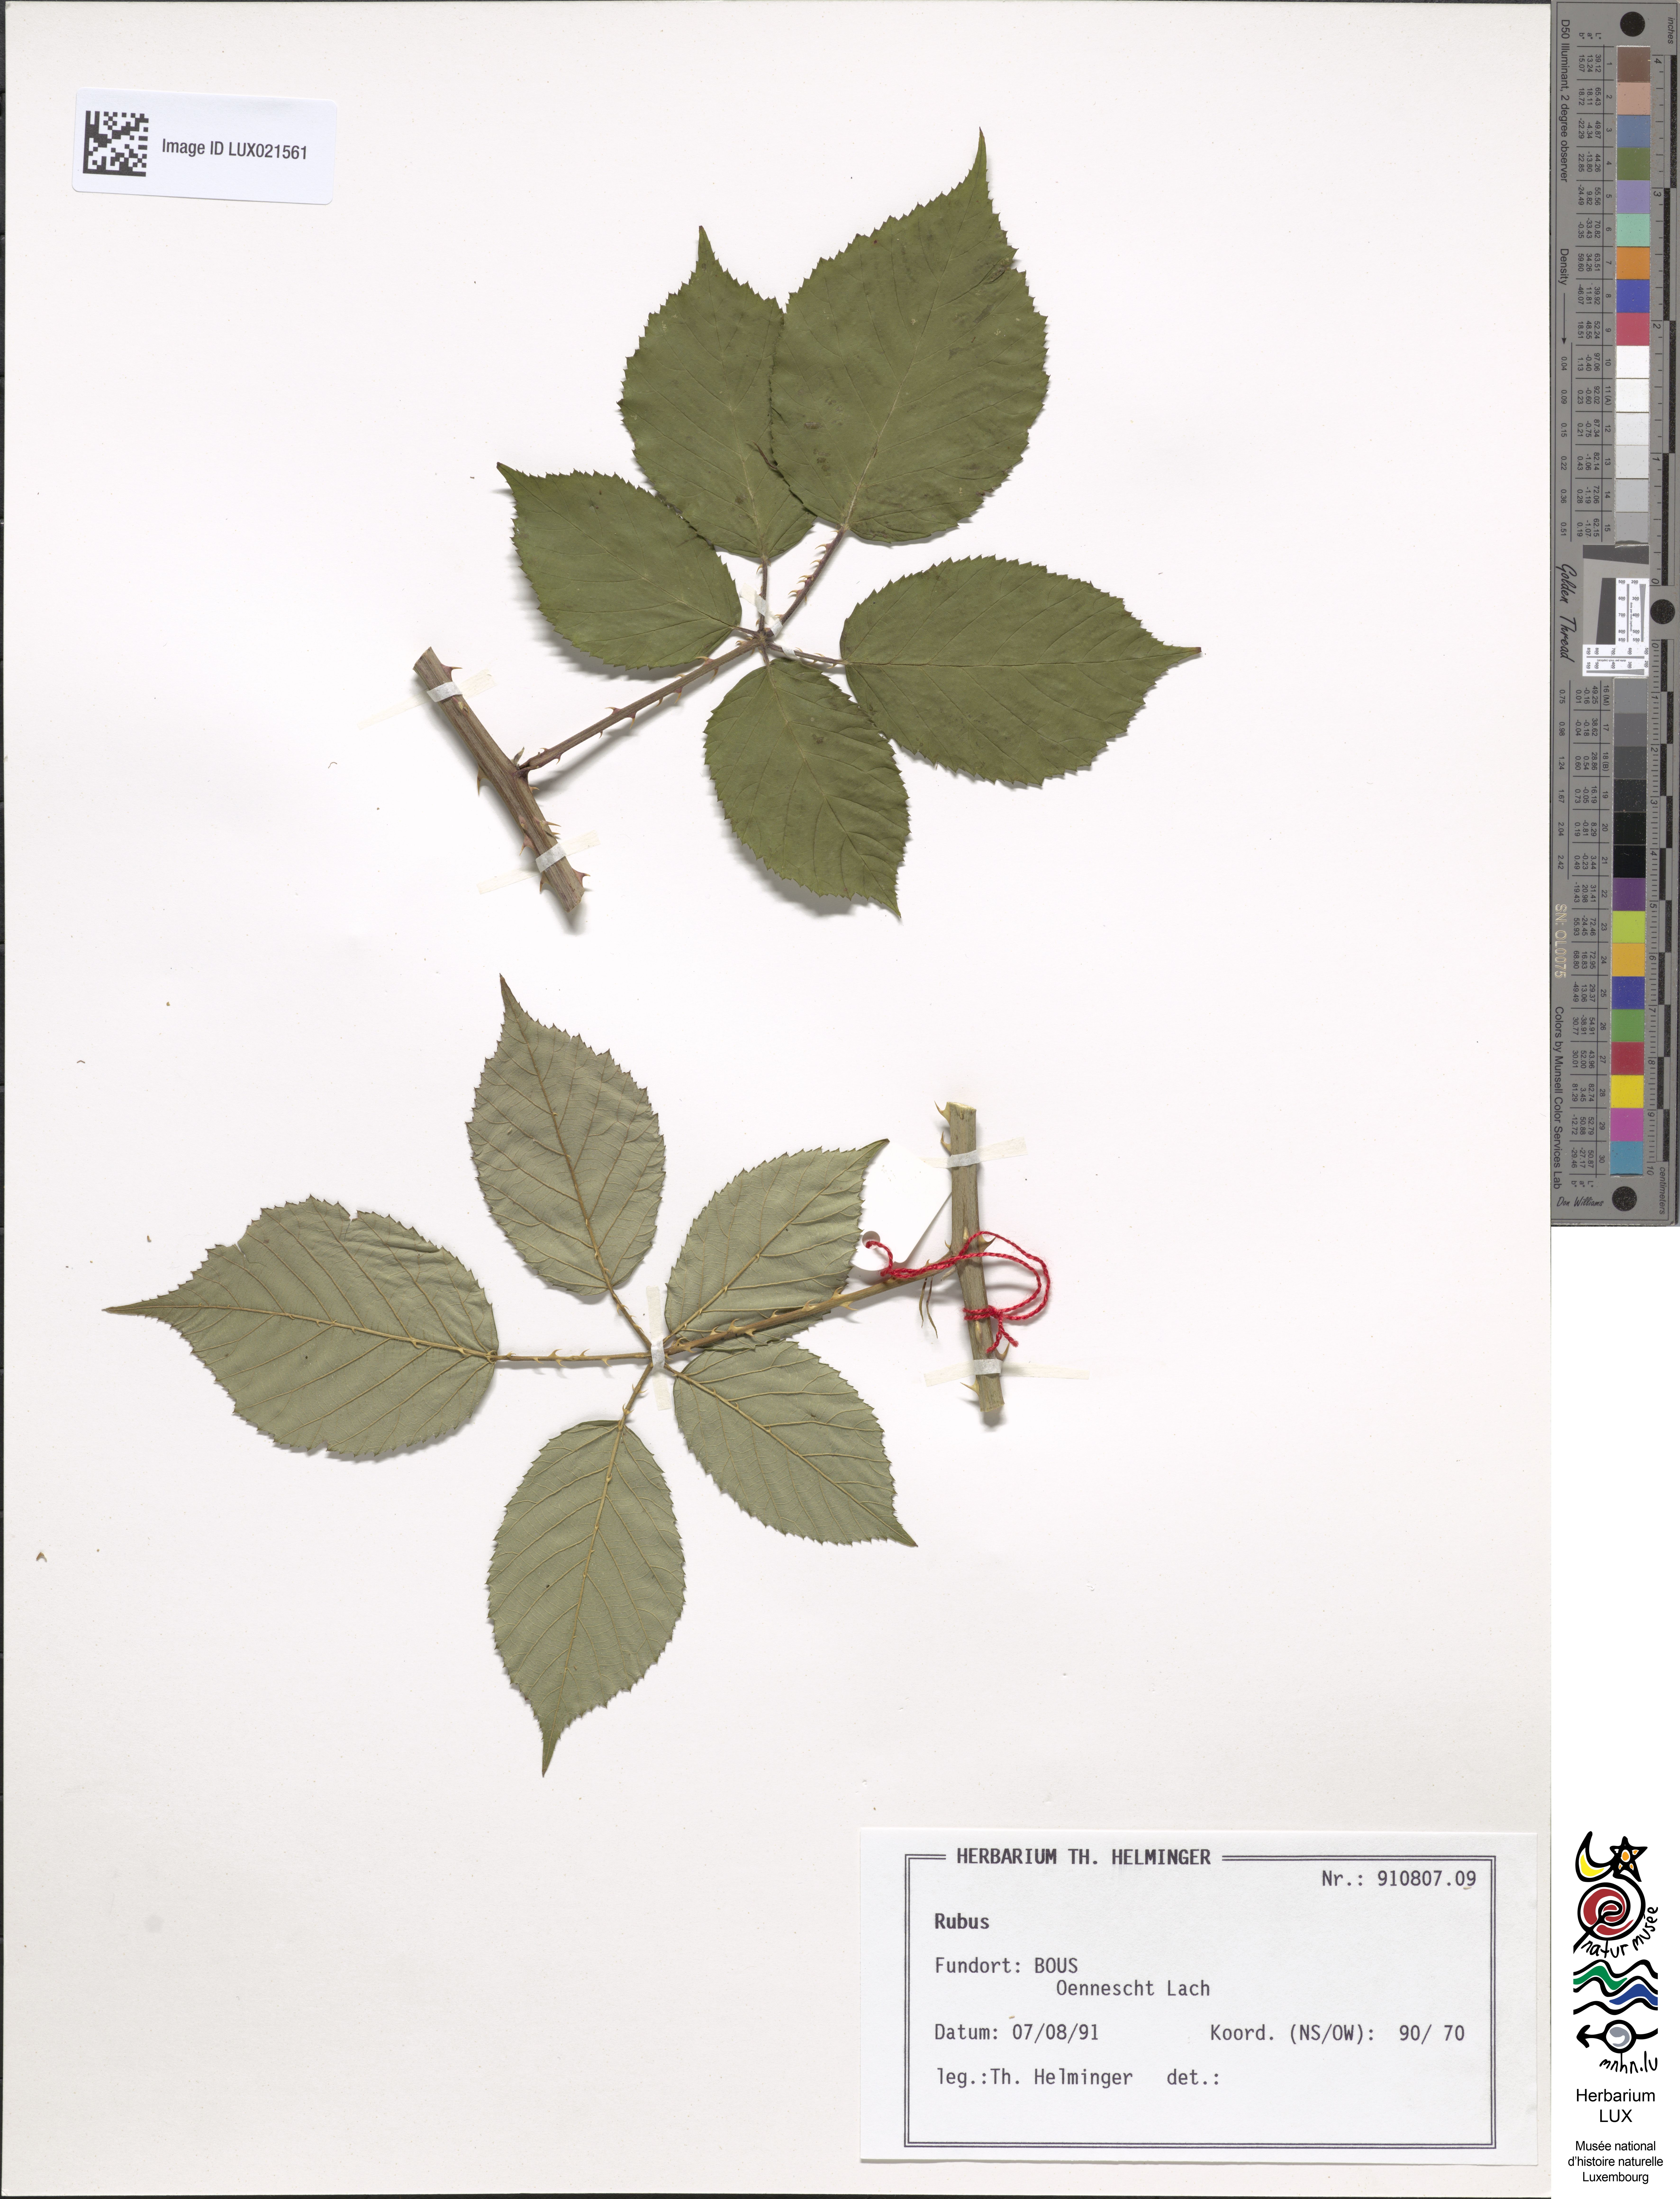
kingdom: Plantae
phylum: Tracheophyta
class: Magnoliopsida
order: Rosales
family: Rosaceae
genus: Rubus
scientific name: Rubus
